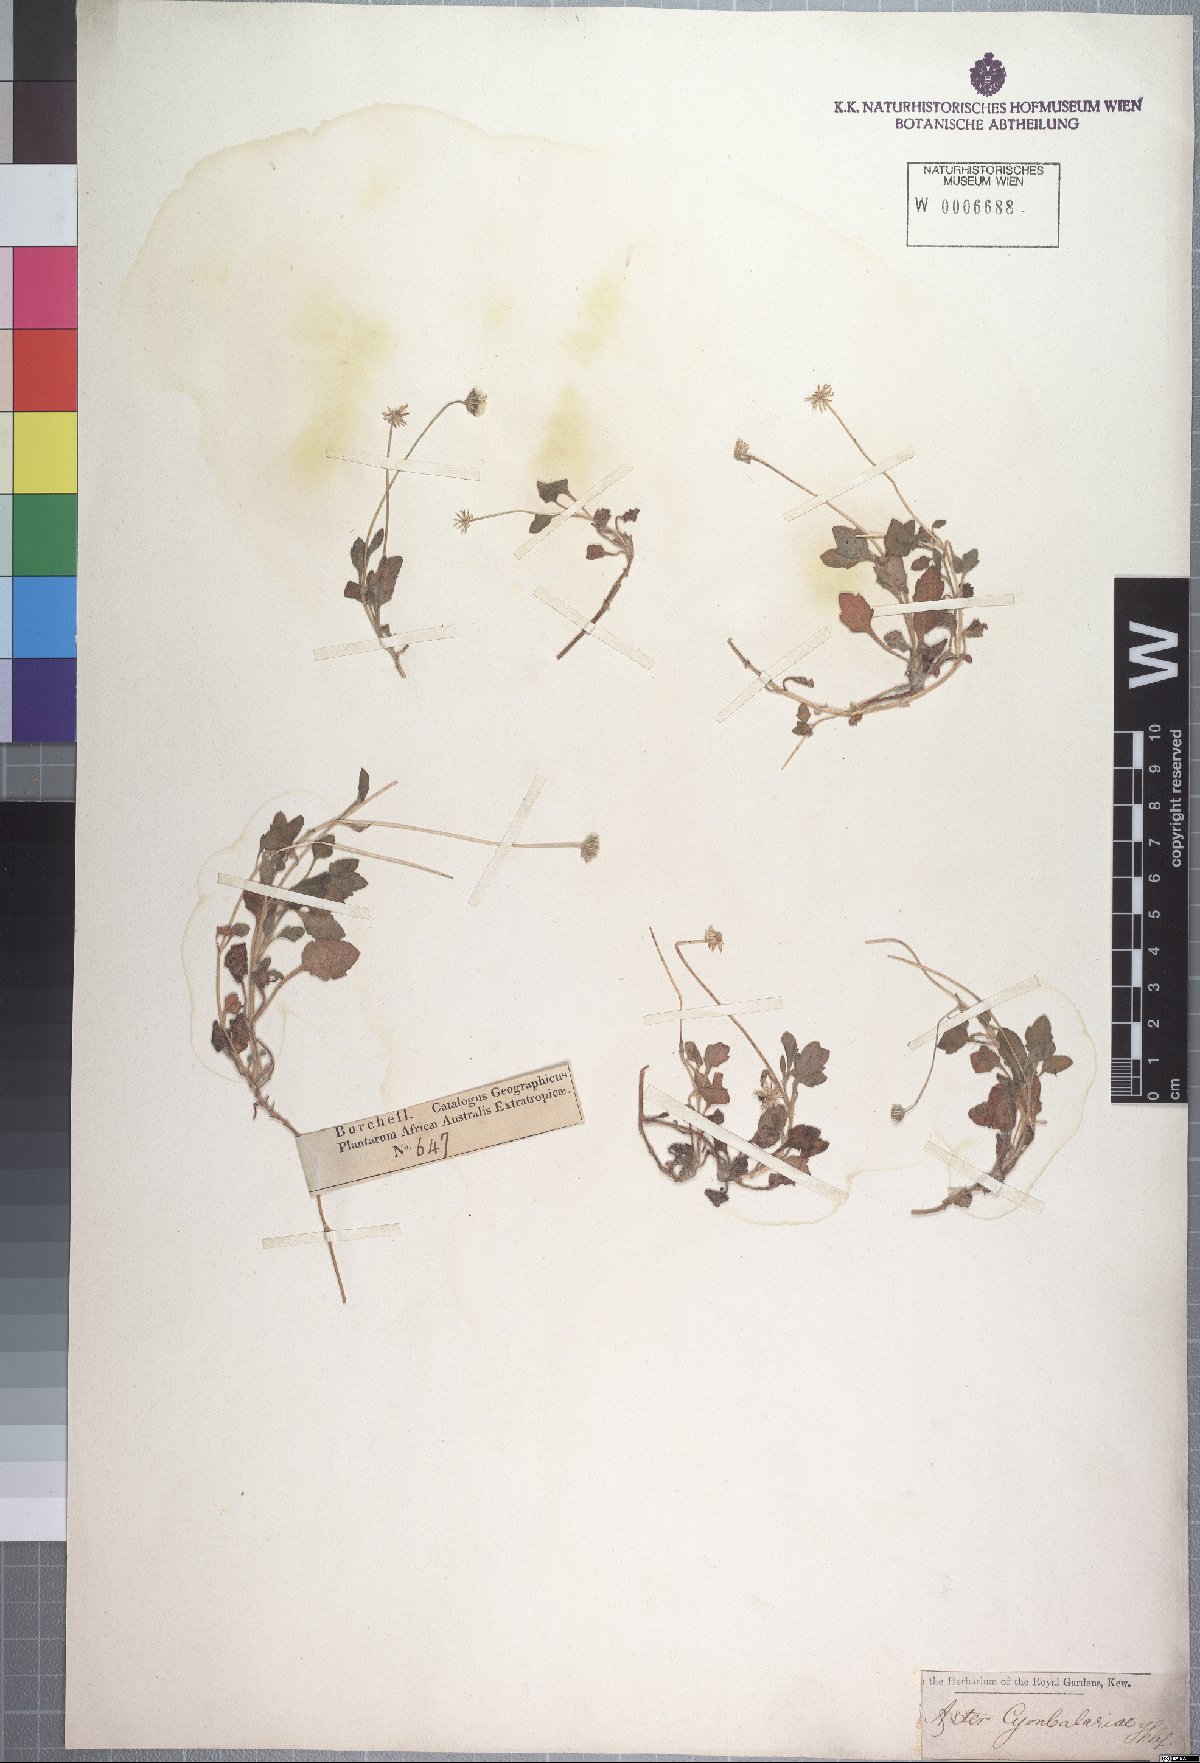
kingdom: Plantae
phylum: Tracheophyta
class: Magnoliopsida
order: Asterales
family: Asteraceae
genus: Felicia
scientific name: Felicia cymbalariae
